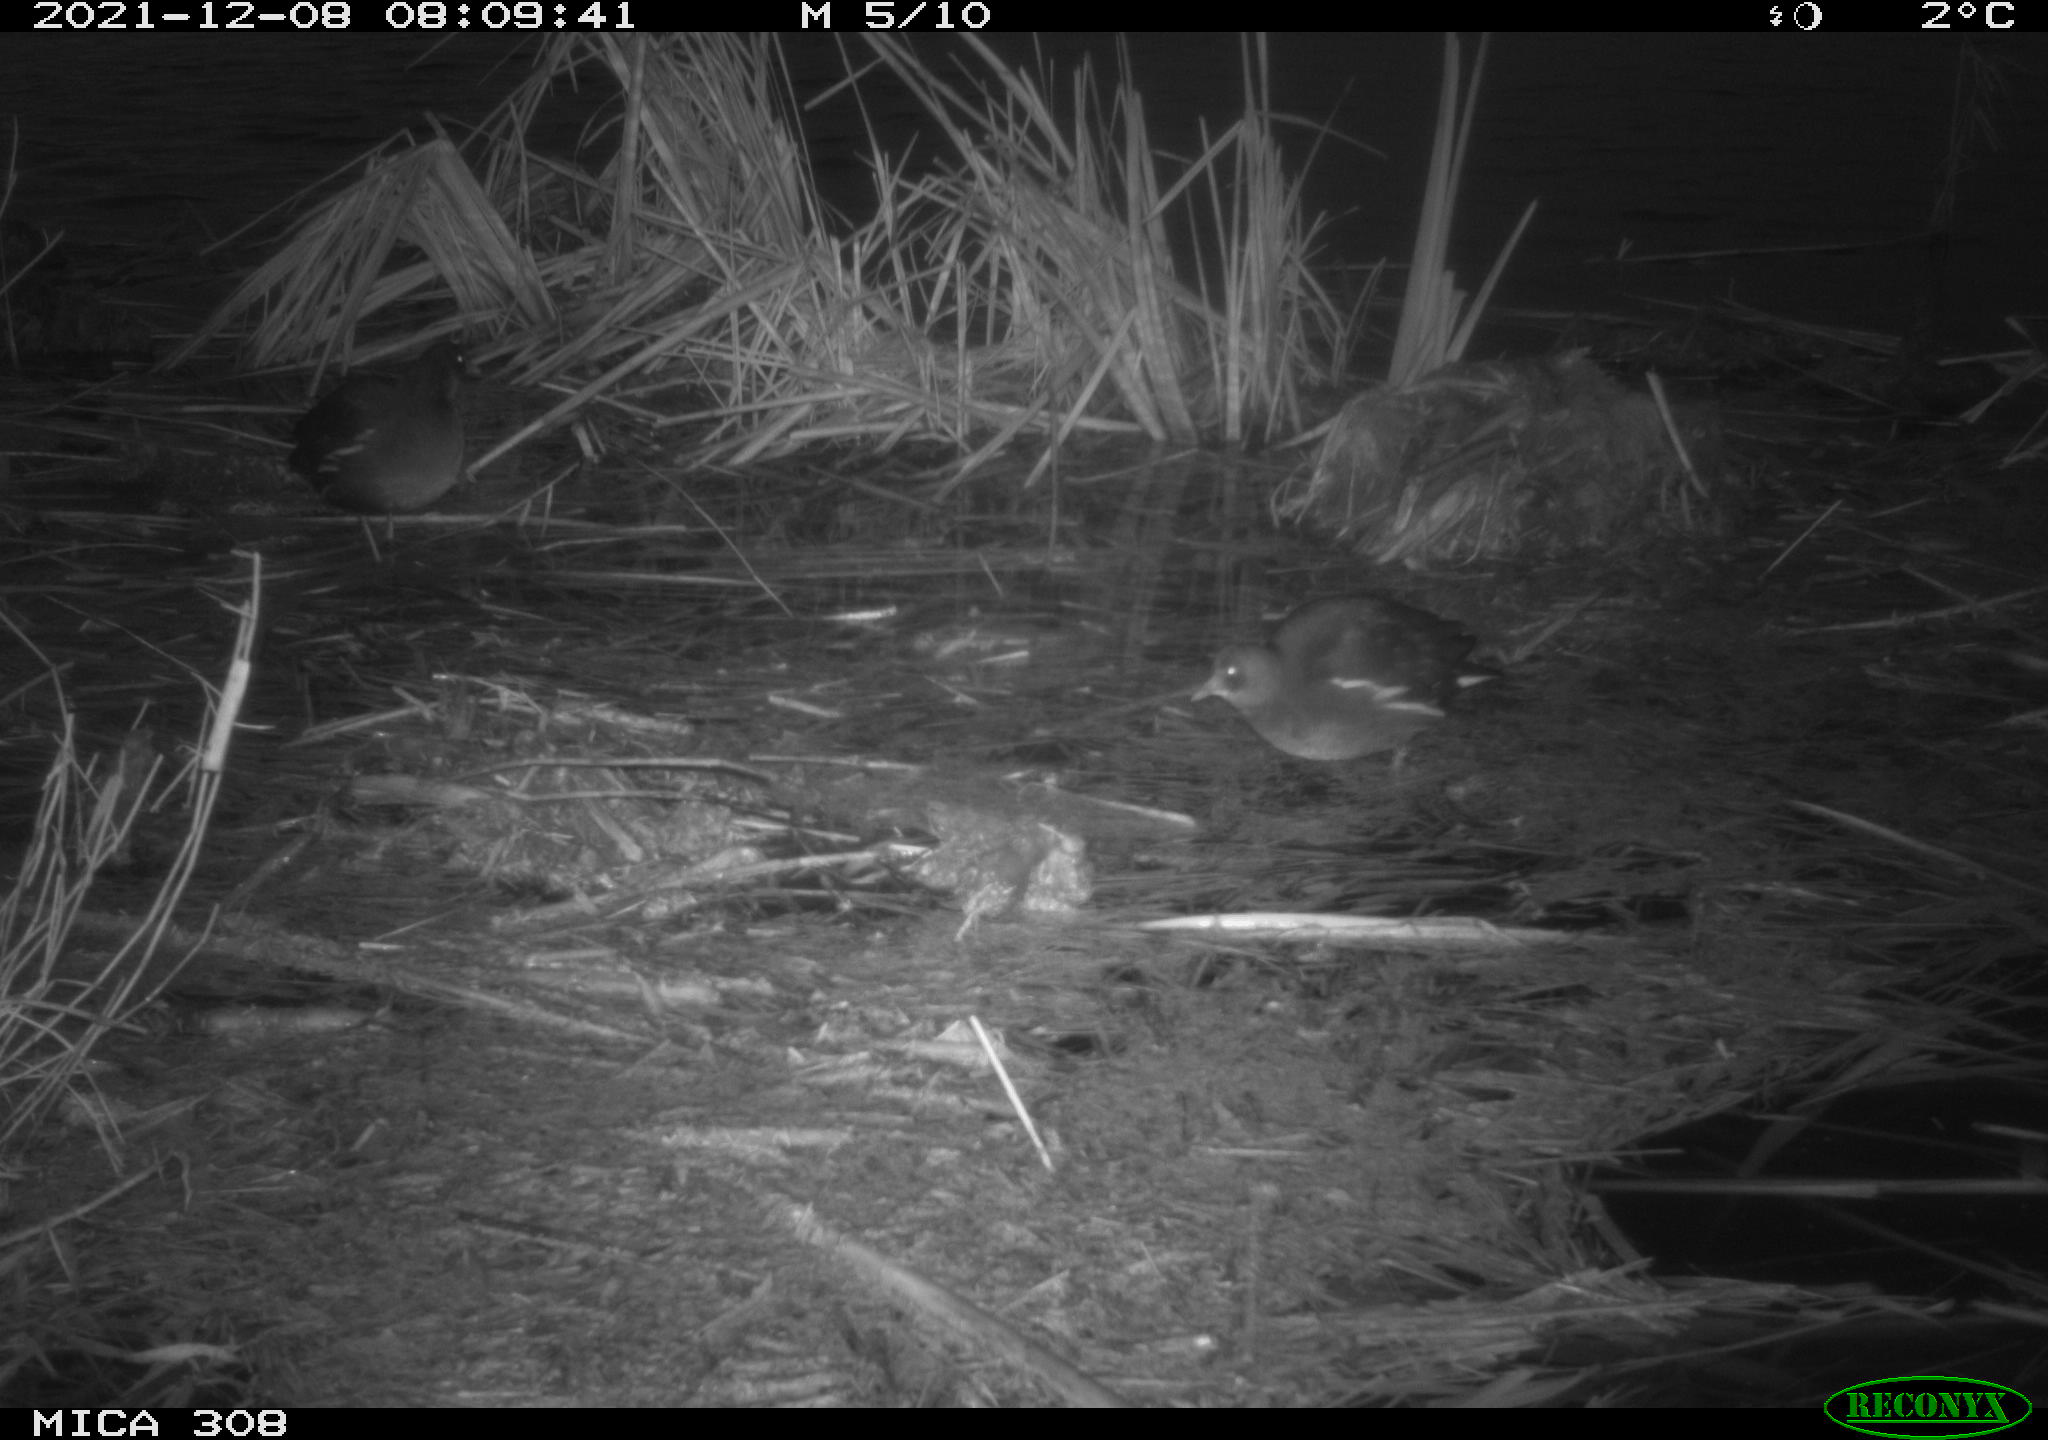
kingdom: Animalia
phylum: Chordata
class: Aves
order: Gruiformes
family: Rallidae
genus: Gallinula
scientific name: Gallinula chloropus
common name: Common moorhen
